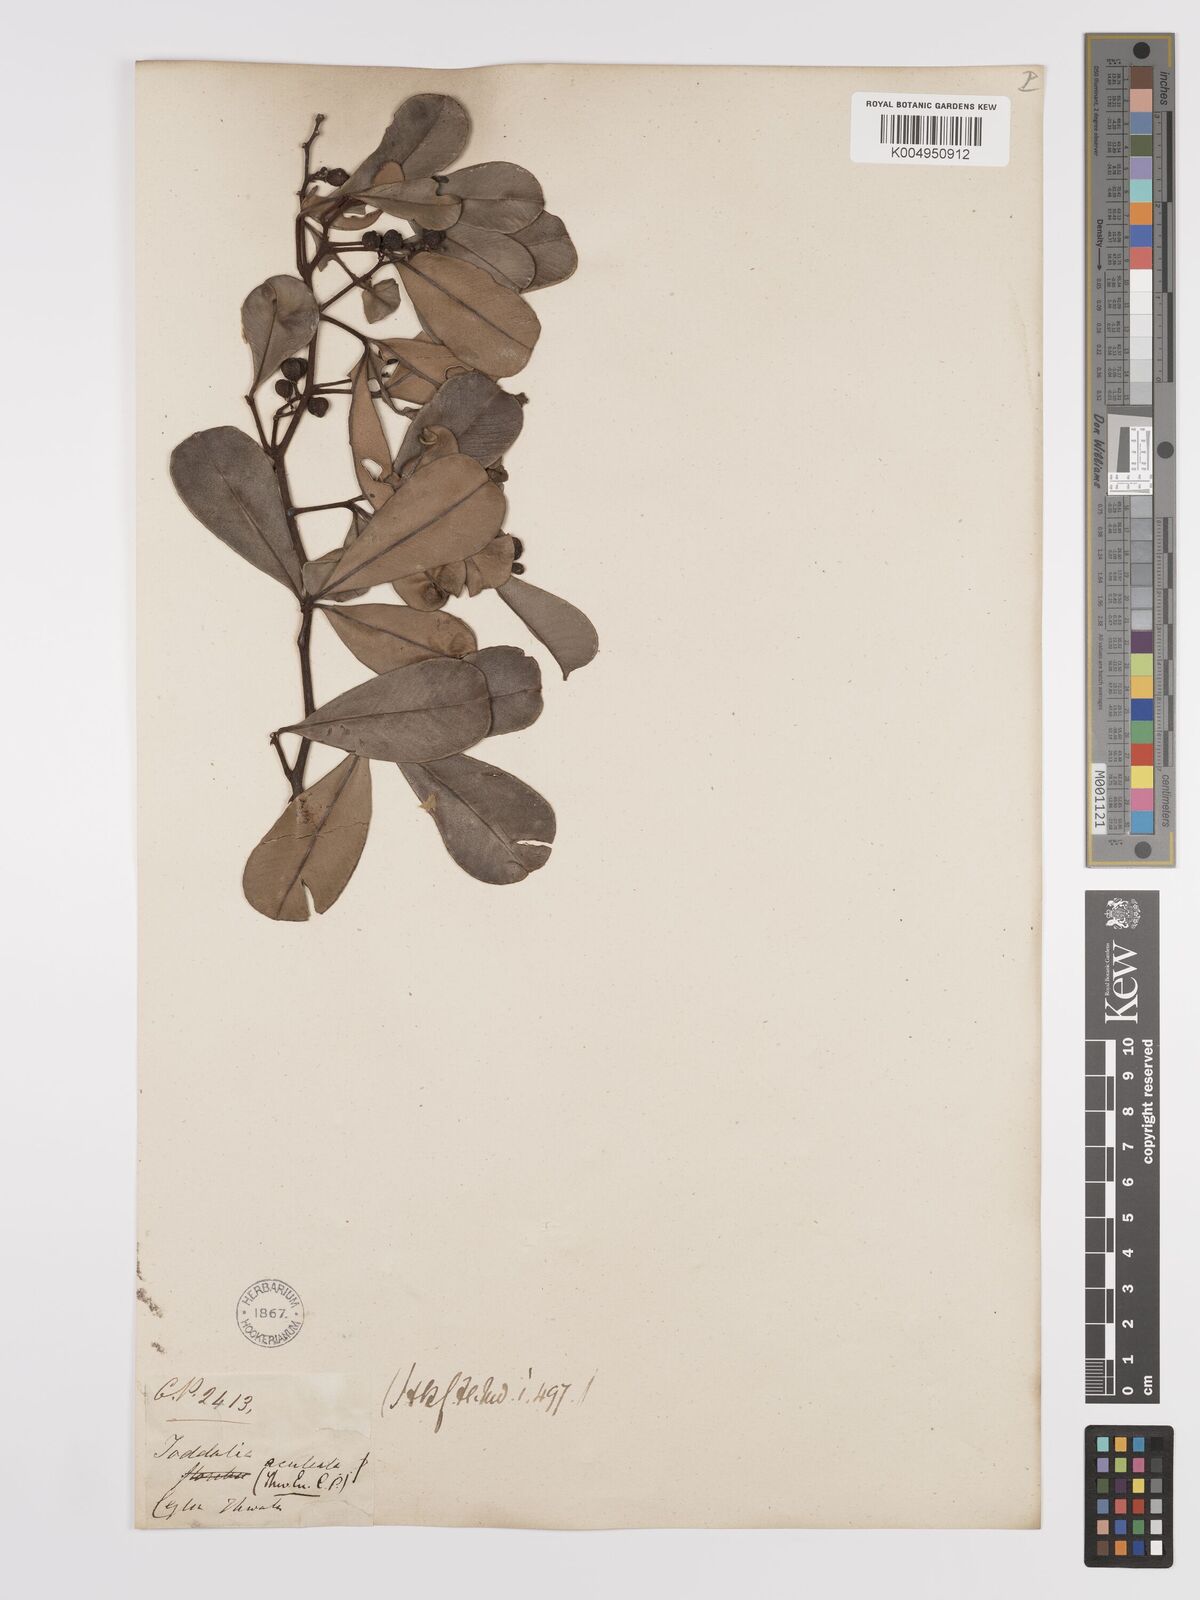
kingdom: Plantae
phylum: Tracheophyta
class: Magnoliopsida
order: Sapindales
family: Rutaceae
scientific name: Rutaceae
